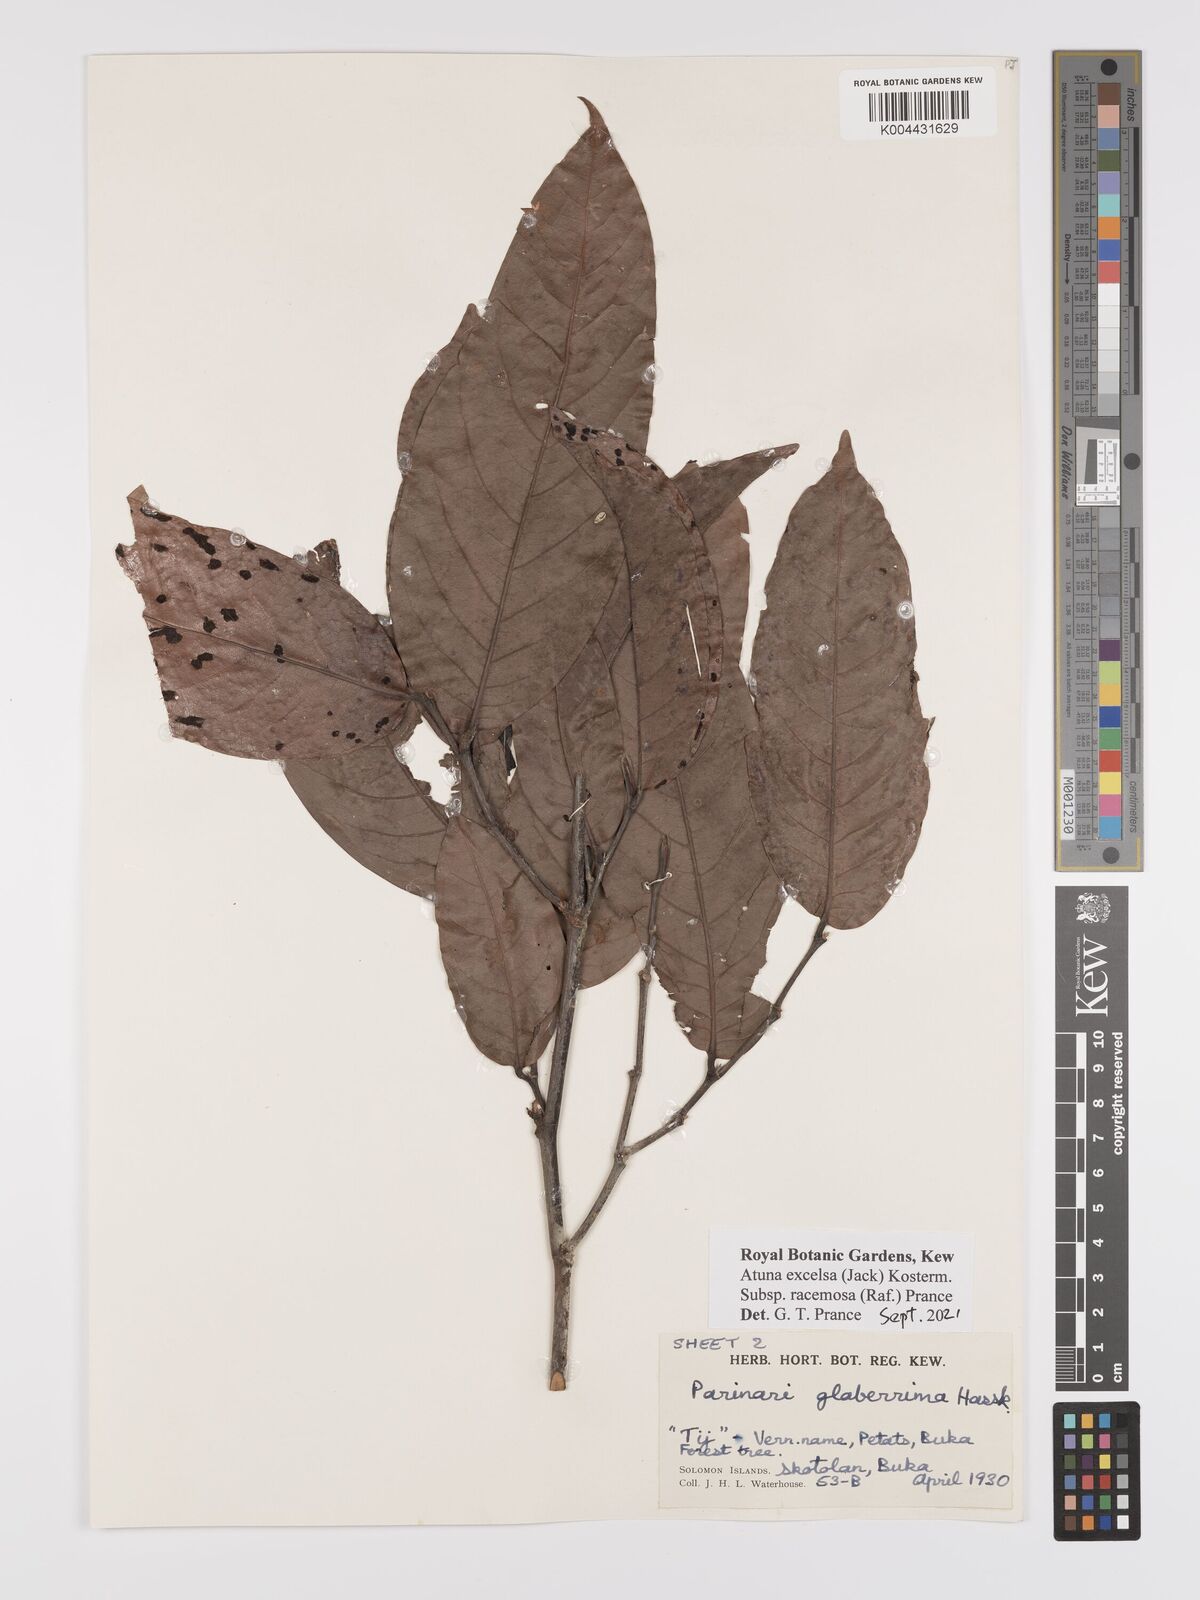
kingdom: Plantae
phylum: Tracheophyta
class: Magnoliopsida
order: Malpighiales
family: Chrysobalanaceae
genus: Atuna
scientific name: Atuna excelsa
